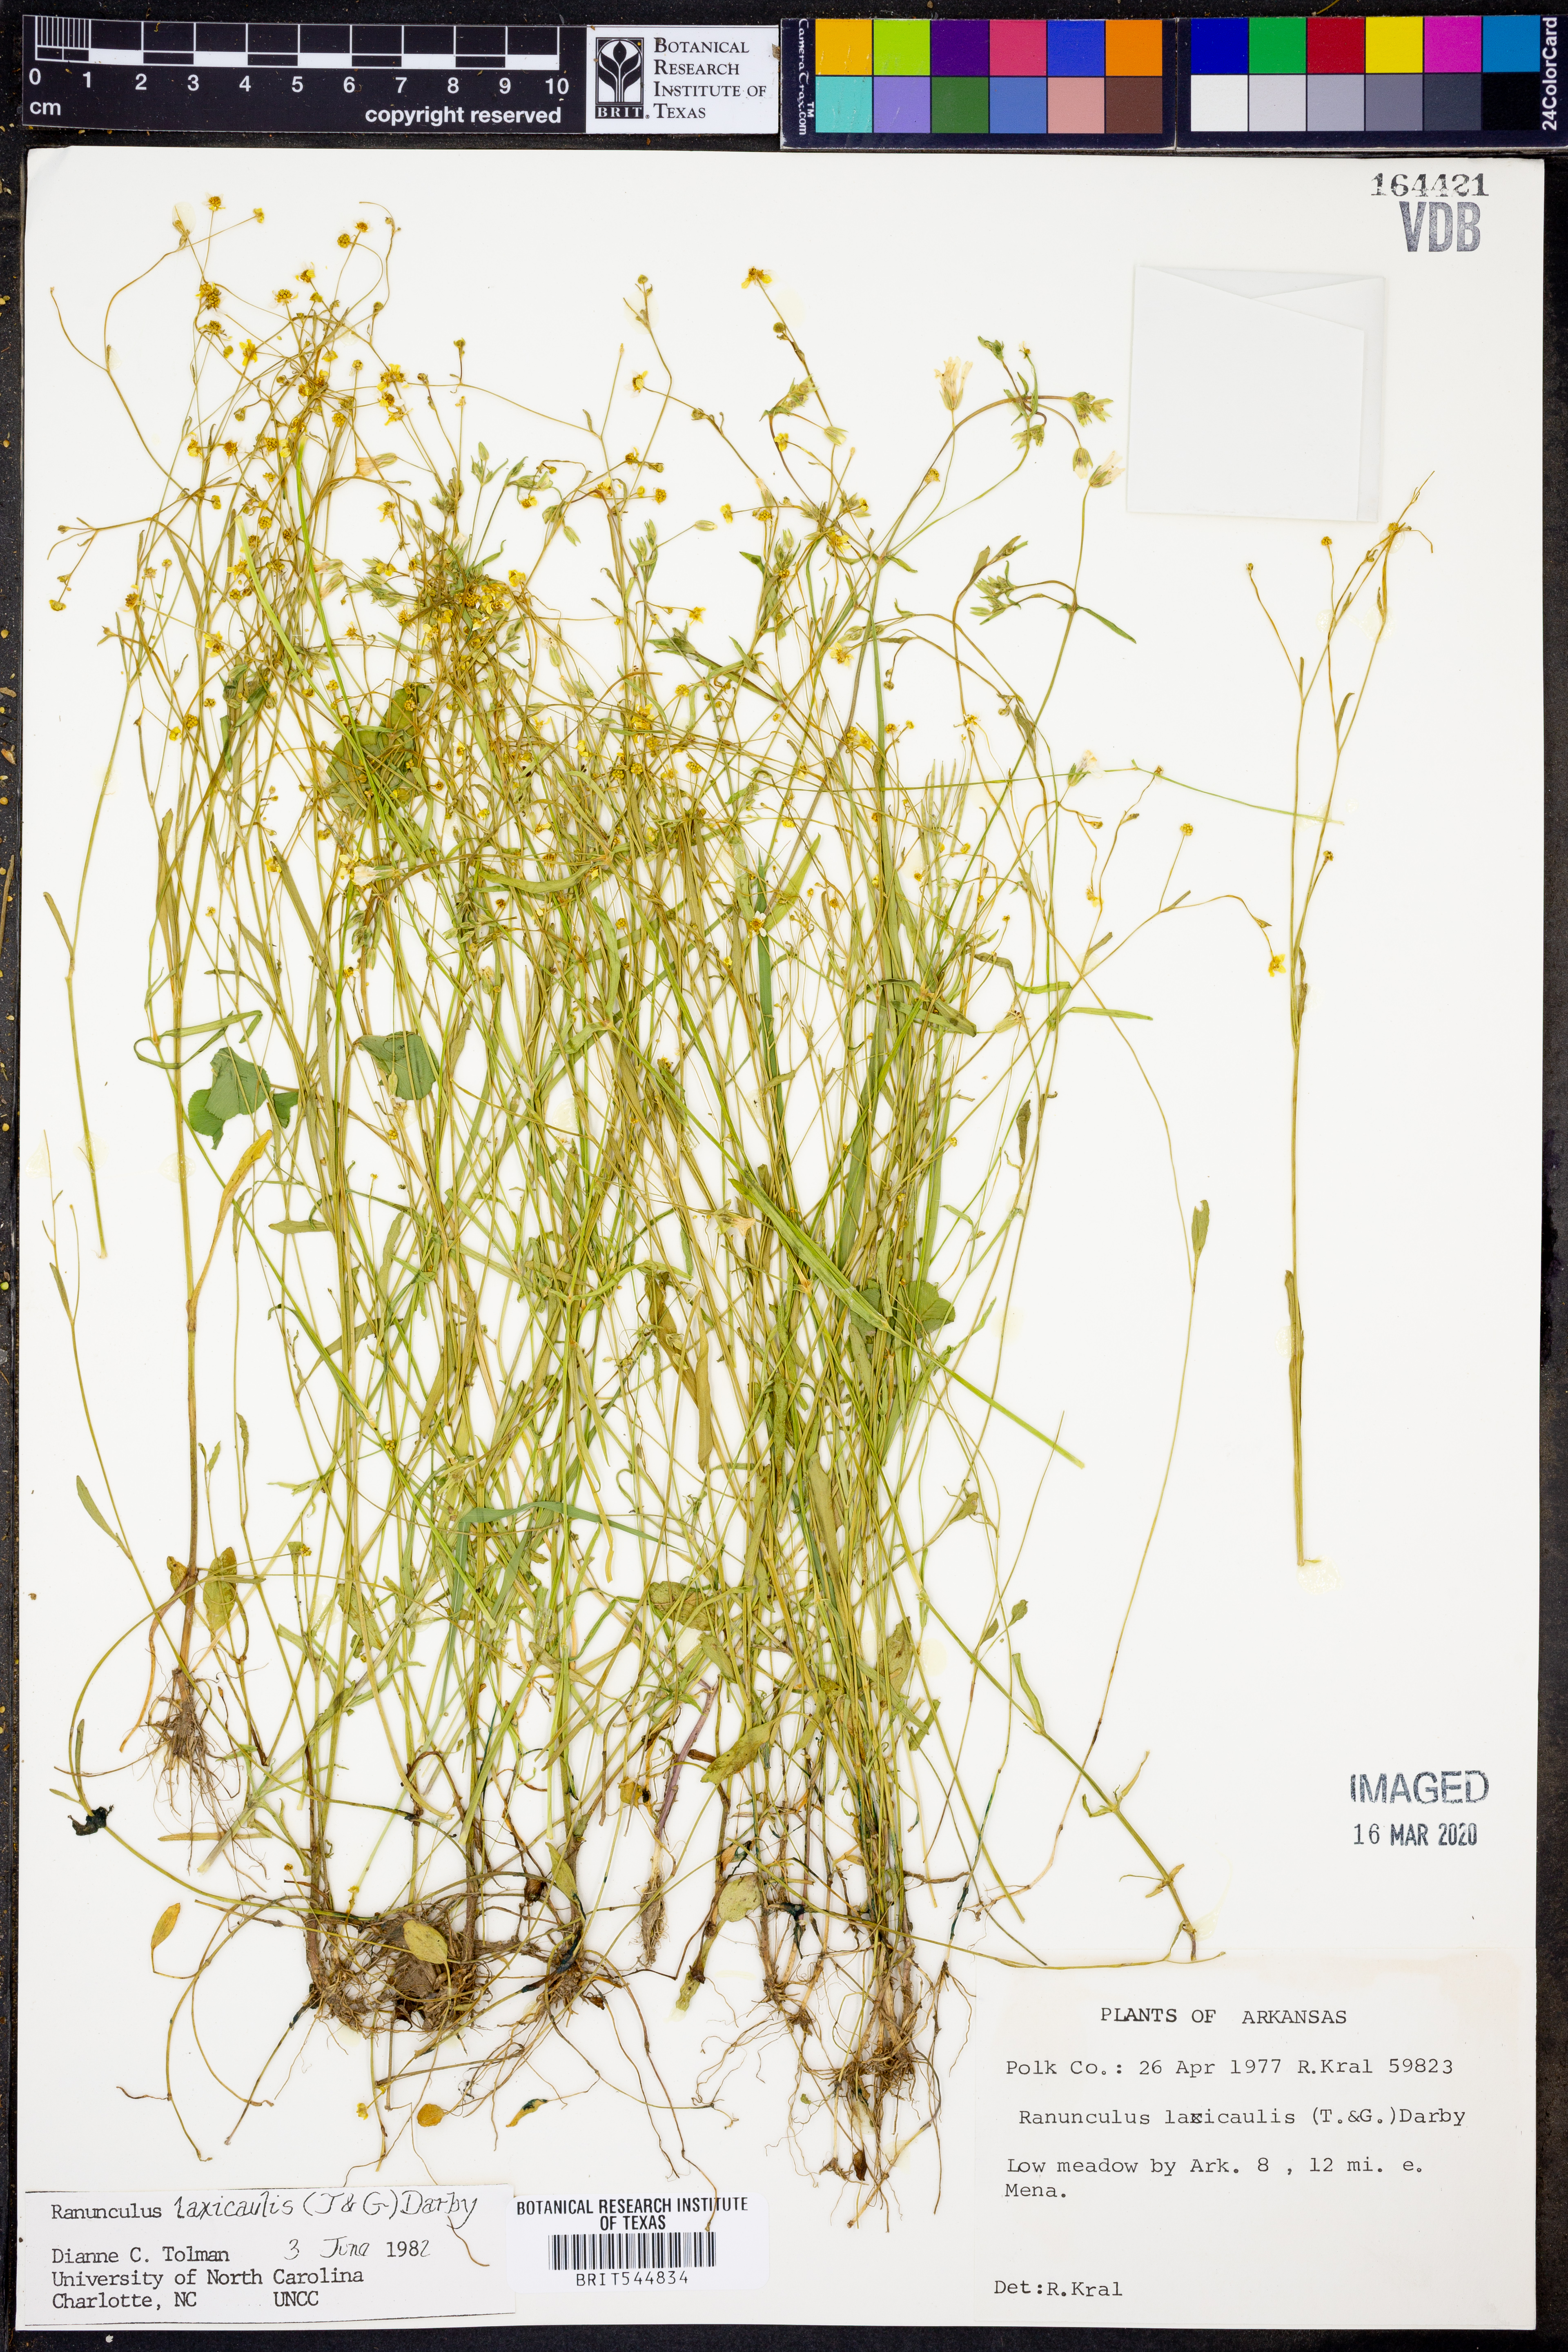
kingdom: Plantae
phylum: Tracheophyta
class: Magnoliopsida
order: Ranunculales
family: Ranunculaceae
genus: Ranunculus
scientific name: Ranunculus laxicaulis
